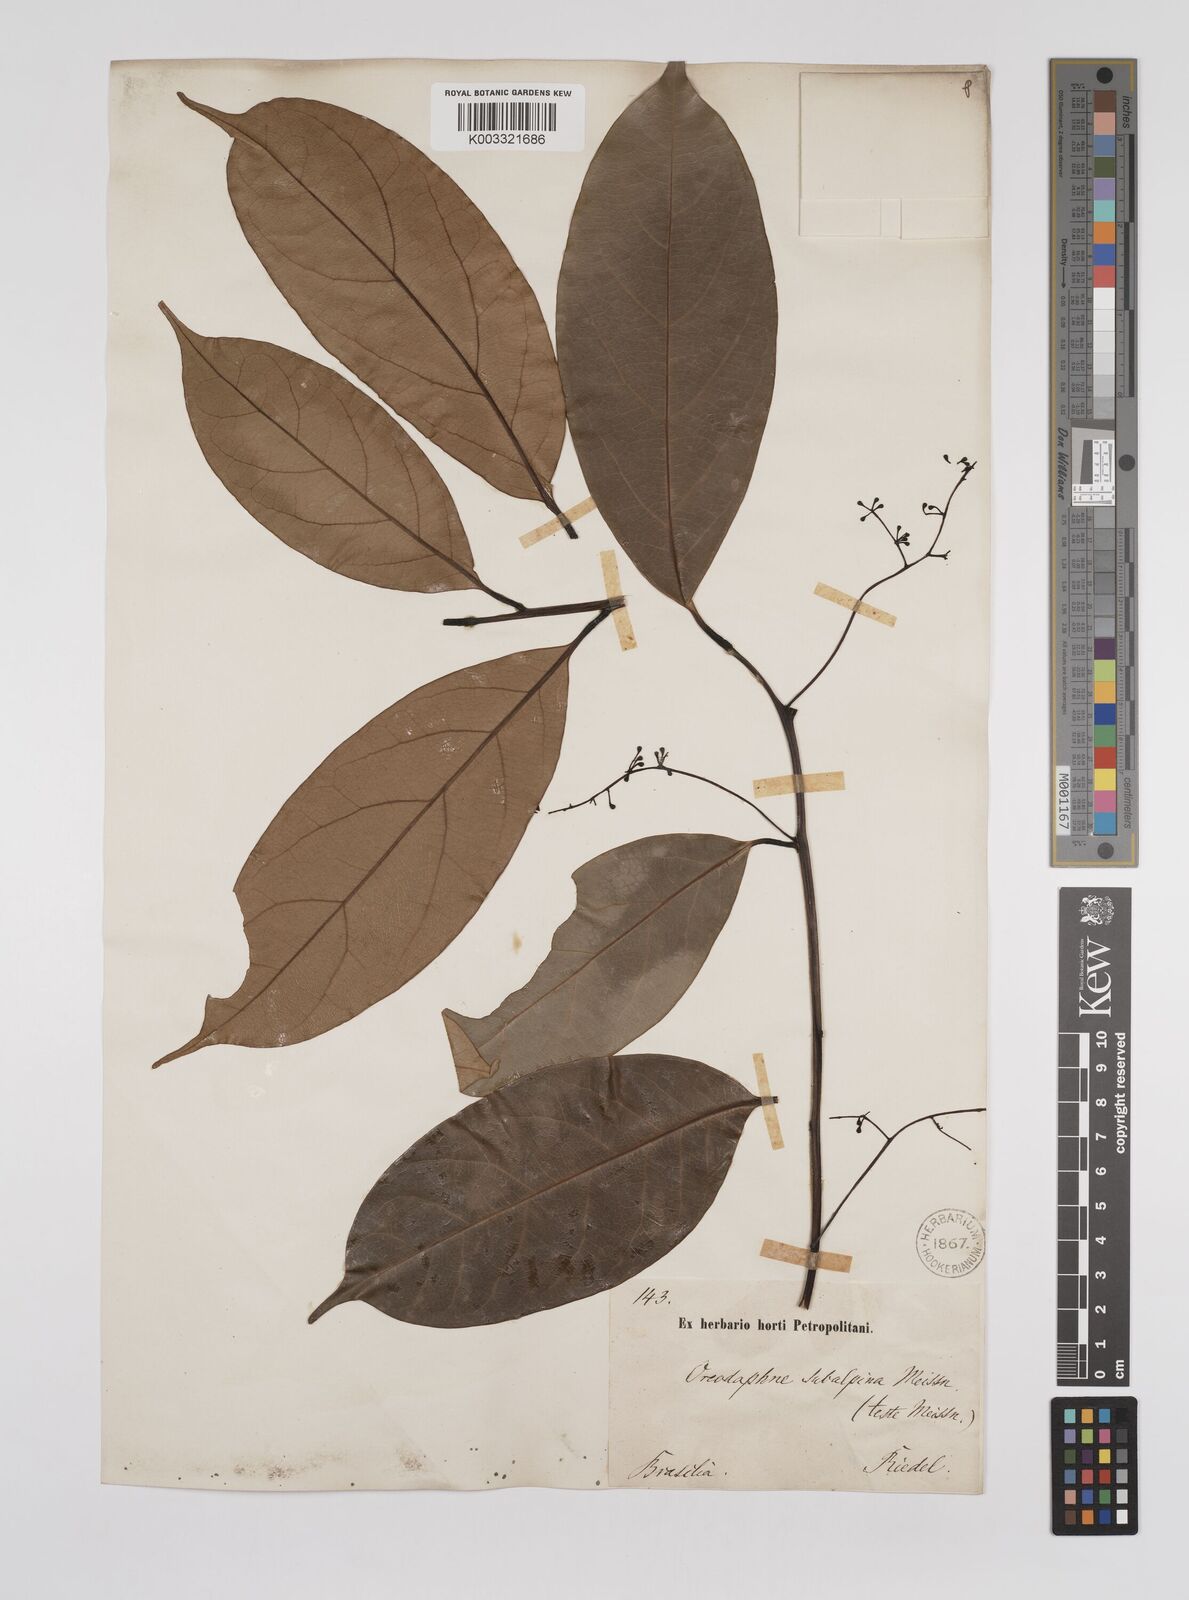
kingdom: Plantae
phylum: Tracheophyta
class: Magnoliopsida
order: Laurales
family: Lauraceae
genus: Ocotea
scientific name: Ocotea leptobotra
